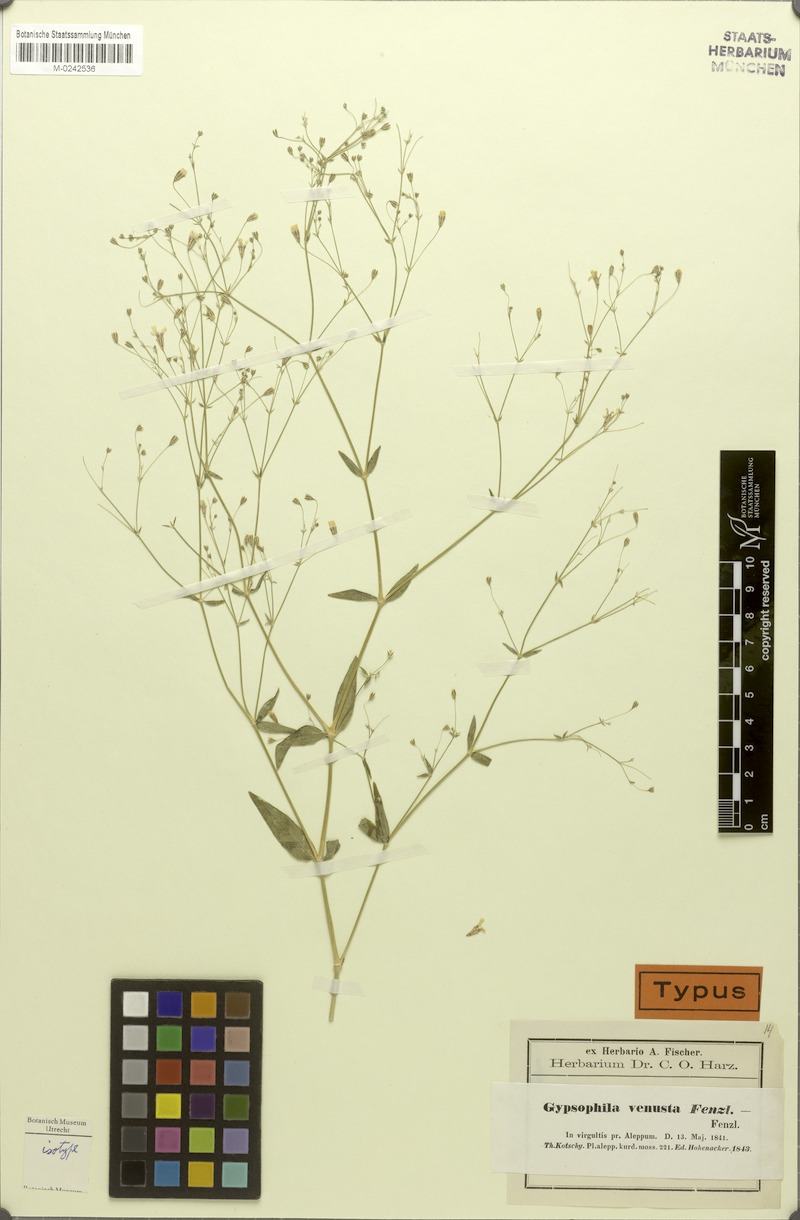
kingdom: Plantae
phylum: Tracheophyta
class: Magnoliopsida
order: Caryophyllales
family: Caryophyllaceae
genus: Gypsophila
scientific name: Gypsophila venusta
